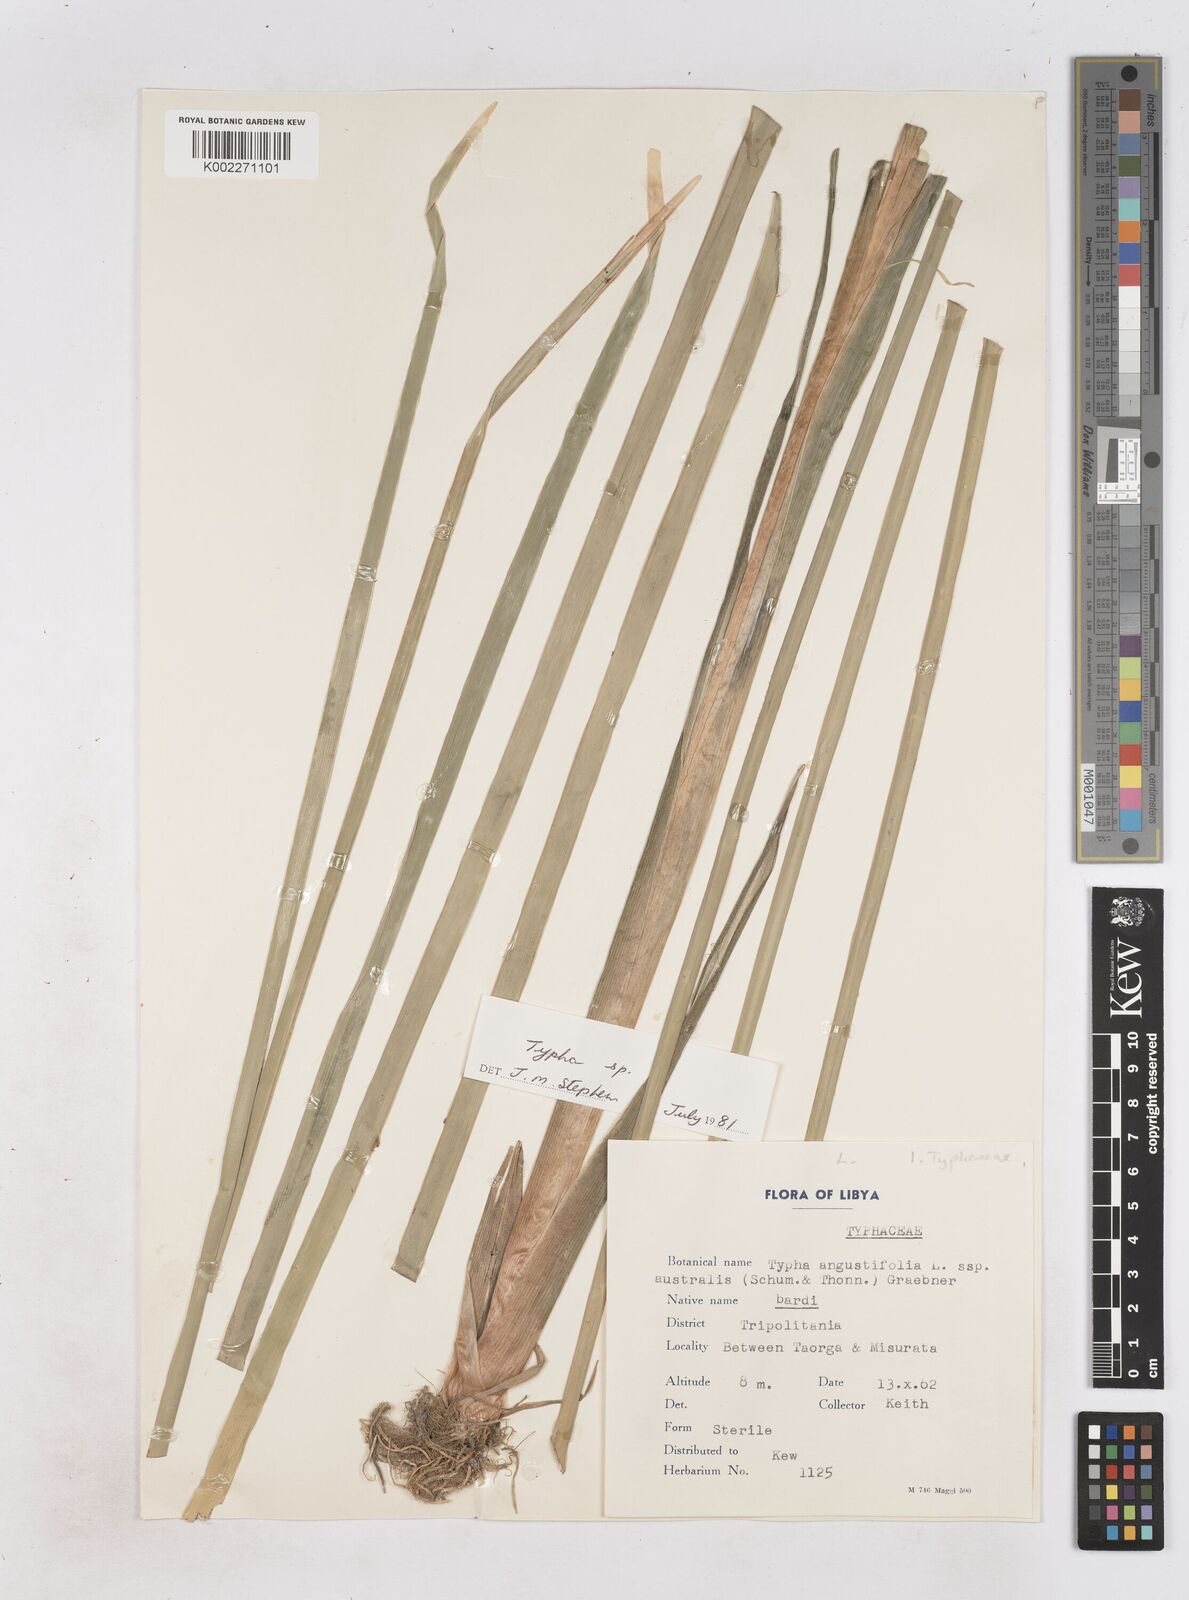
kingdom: Plantae
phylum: Tracheophyta
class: Liliopsida
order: Poales
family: Typhaceae
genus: Typha
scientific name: Typha
